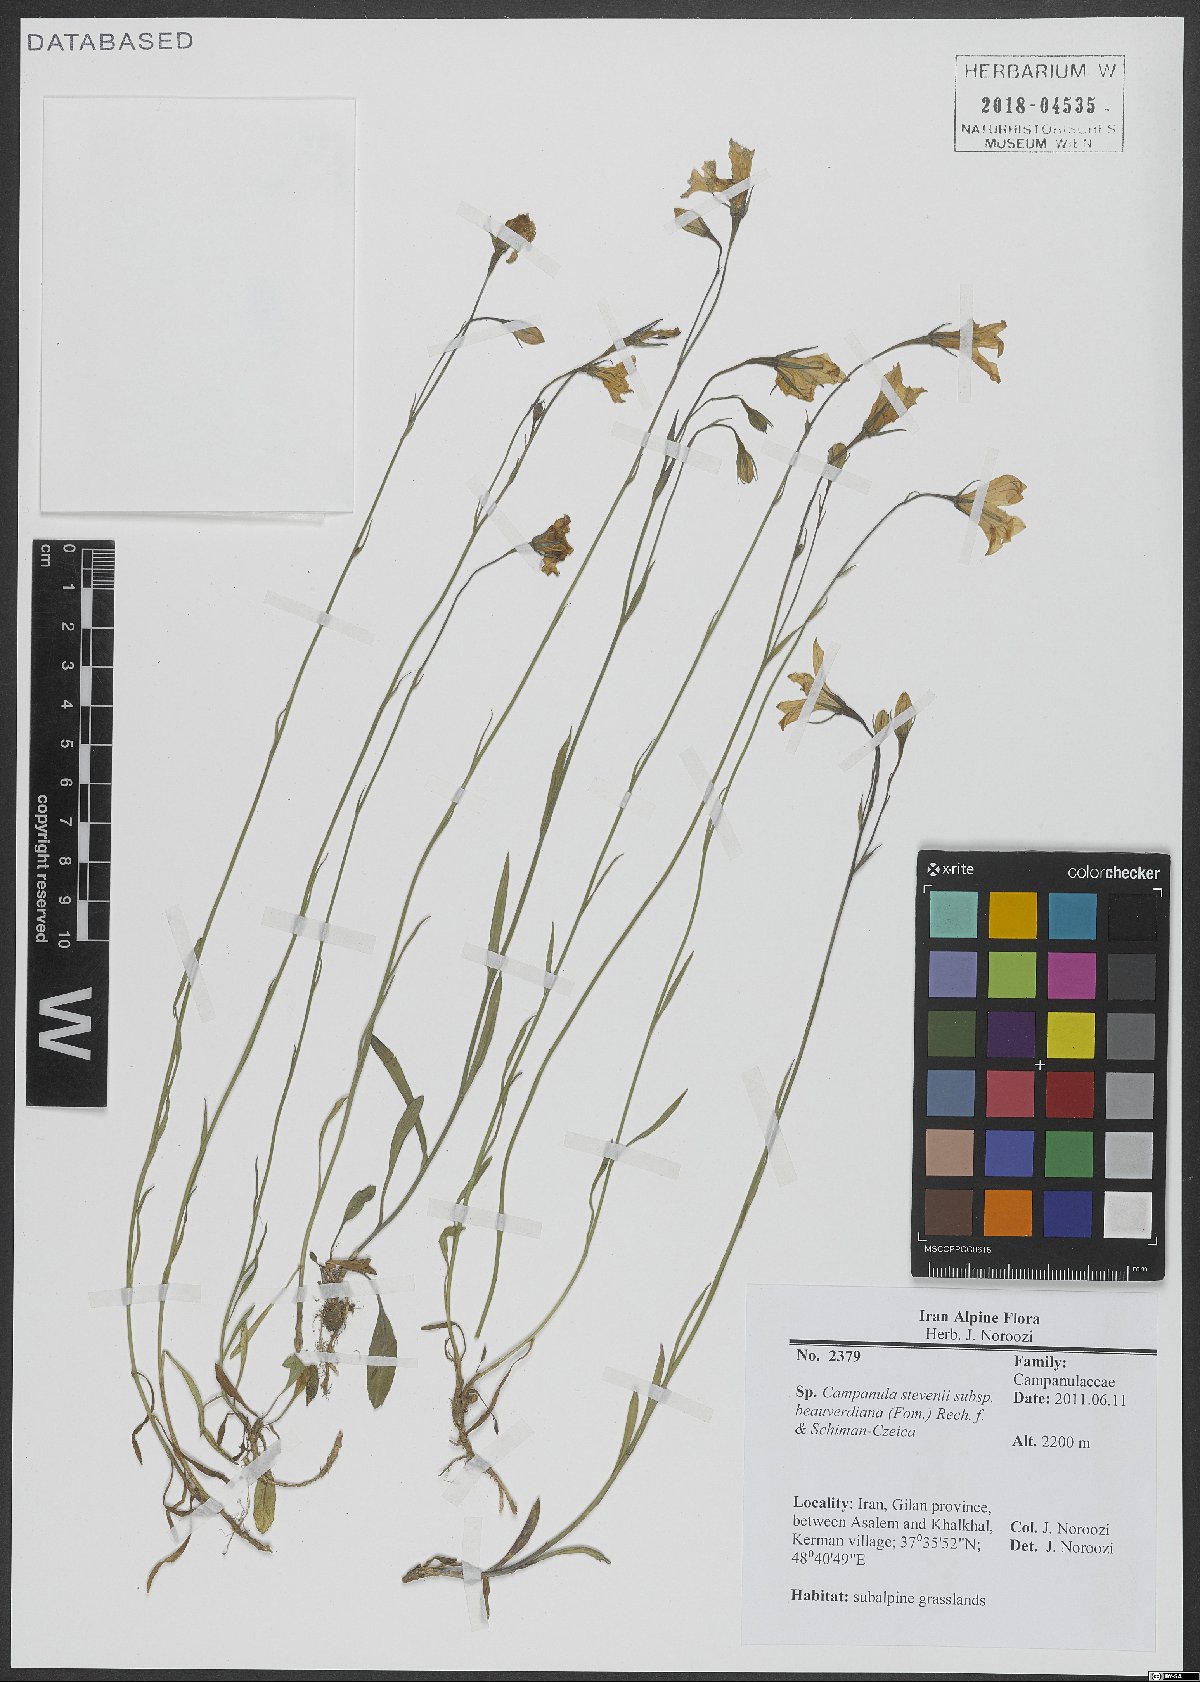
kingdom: Plantae
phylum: Tracheophyta
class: Magnoliopsida
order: Asterales
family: Campanulaceae
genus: Campanula
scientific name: Campanula stevenii
